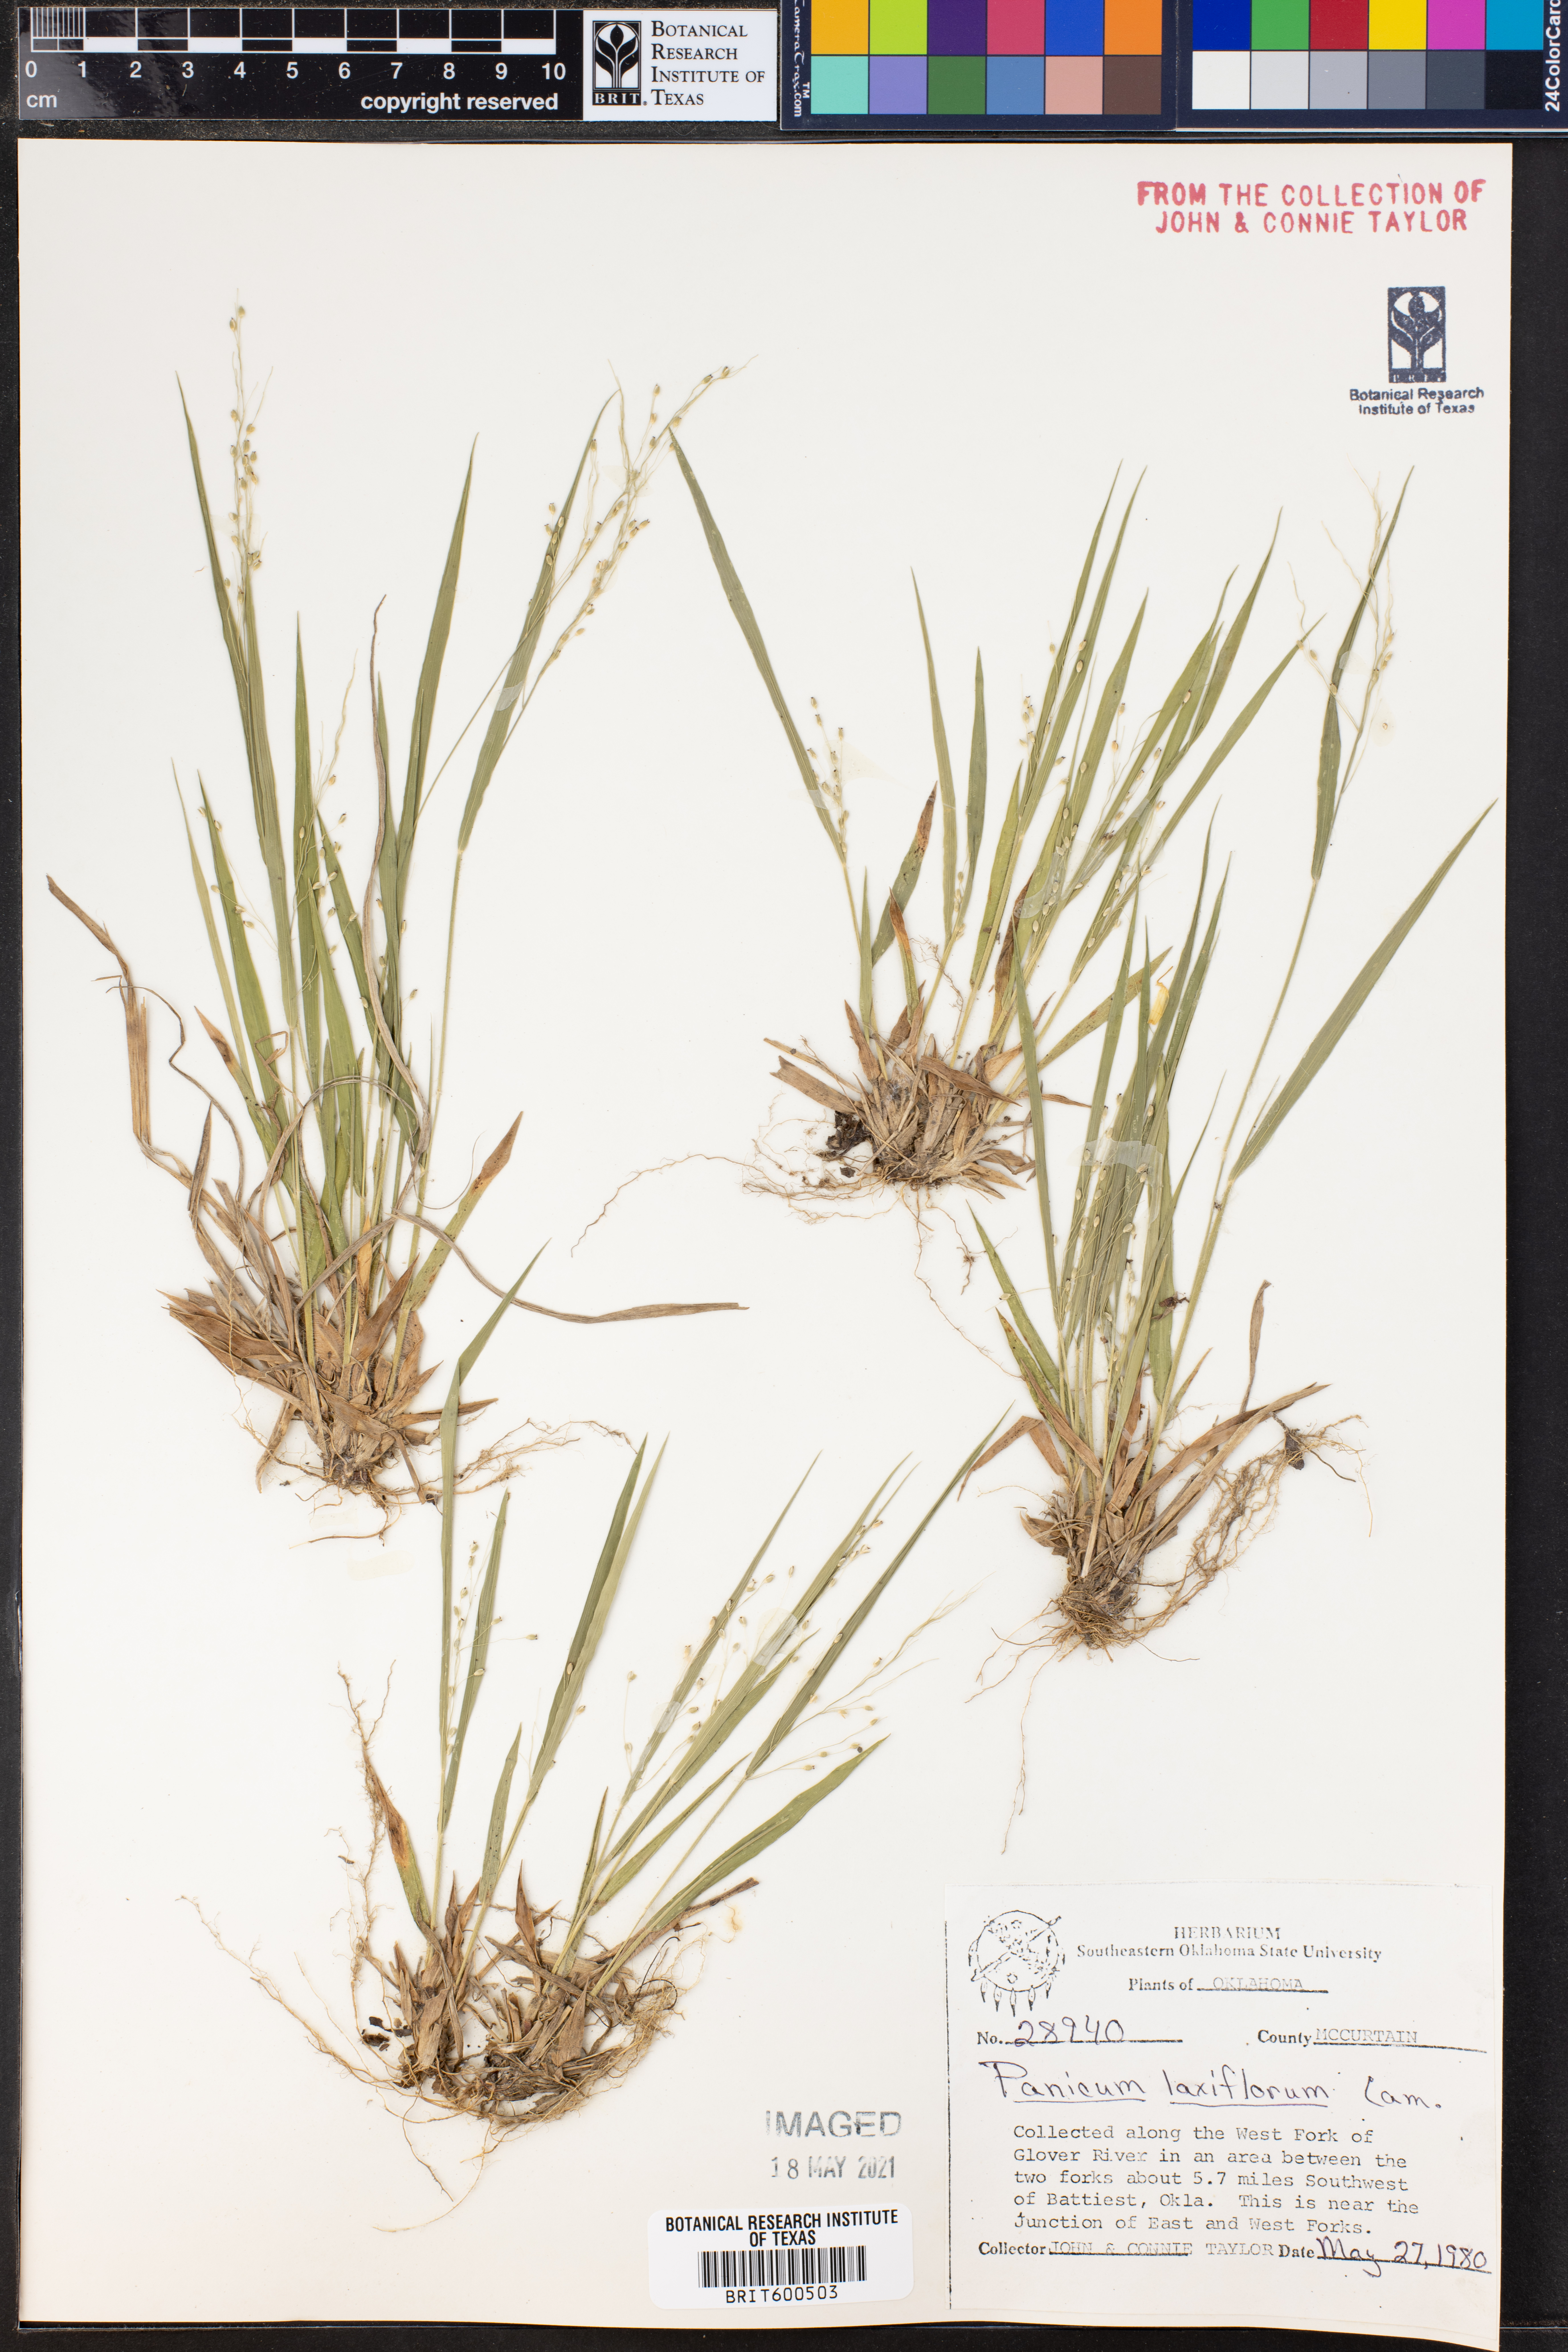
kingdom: Plantae
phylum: Tracheophyta
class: Liliopsida
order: Poales
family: Poaceae
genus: Dichanthelium
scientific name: Dichanthelium laxiflorum
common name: Soft-tuft panic grass
